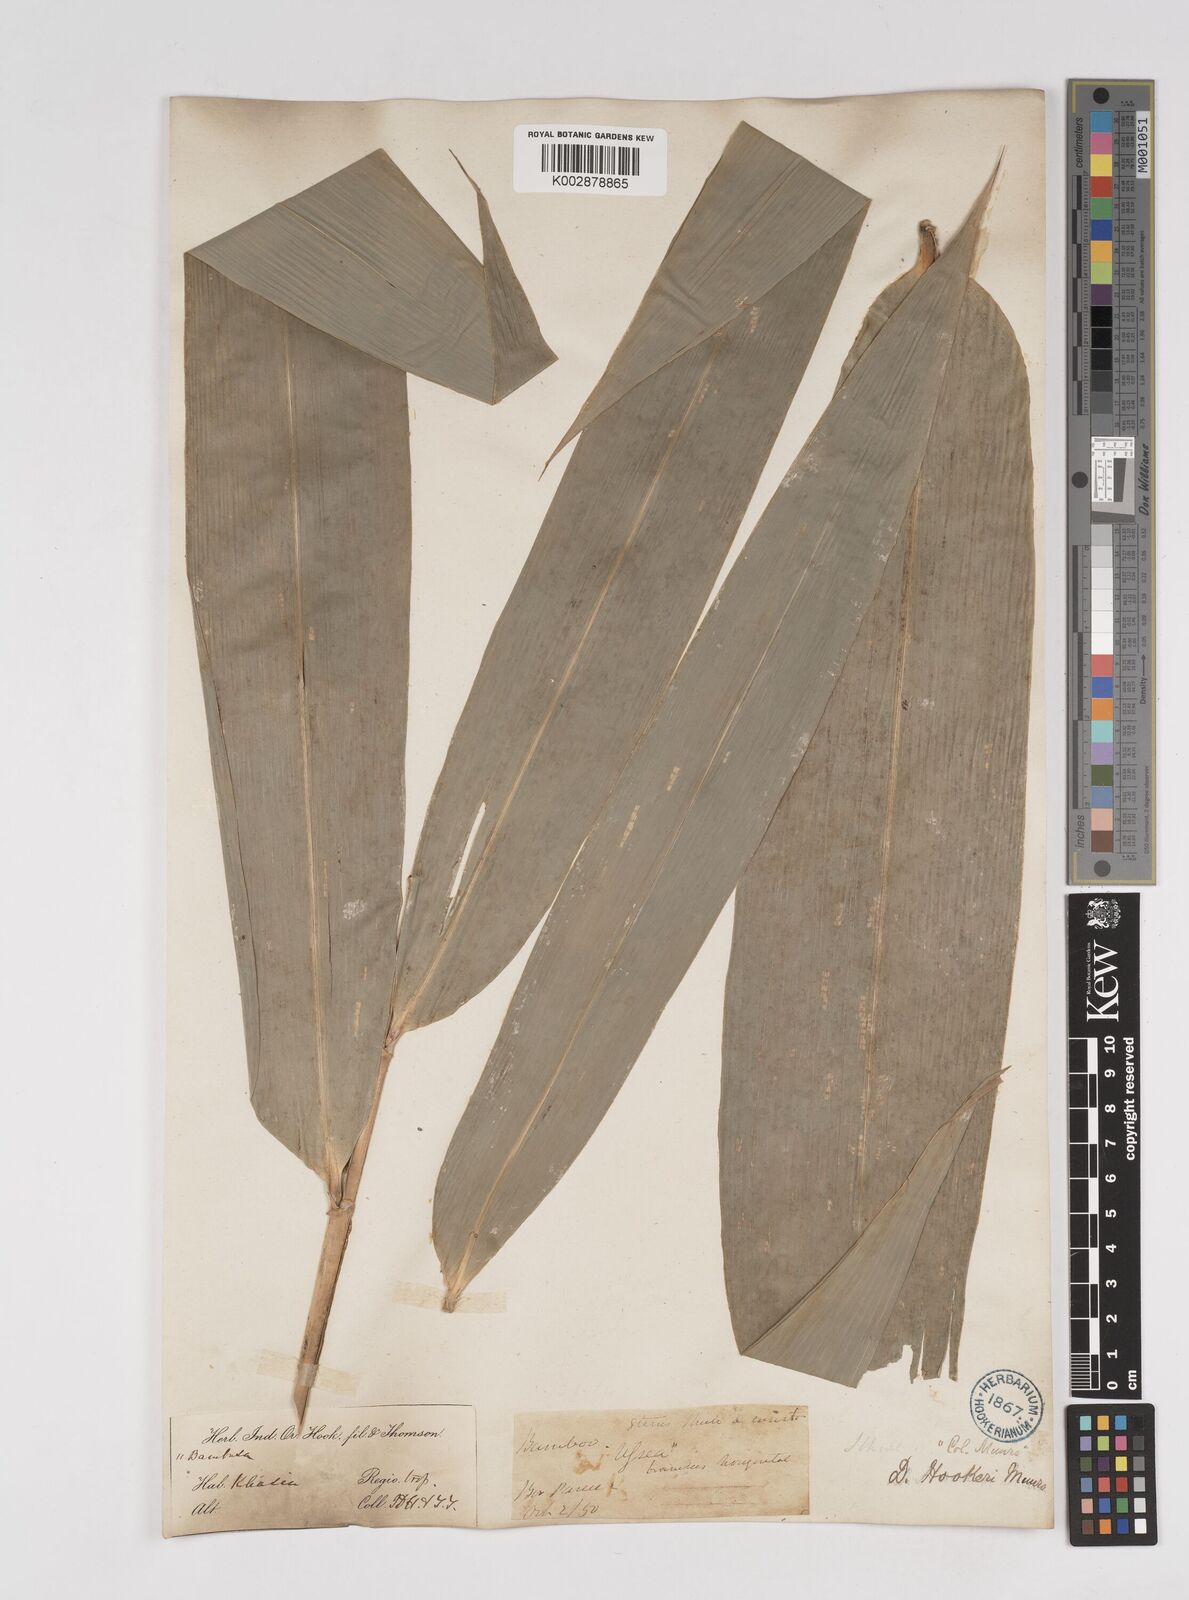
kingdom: Plantae
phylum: Tracheophyta
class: Liliopsida
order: Poales
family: Poaceae
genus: Dendrocalamus
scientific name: Dendrocalamus hookeri
